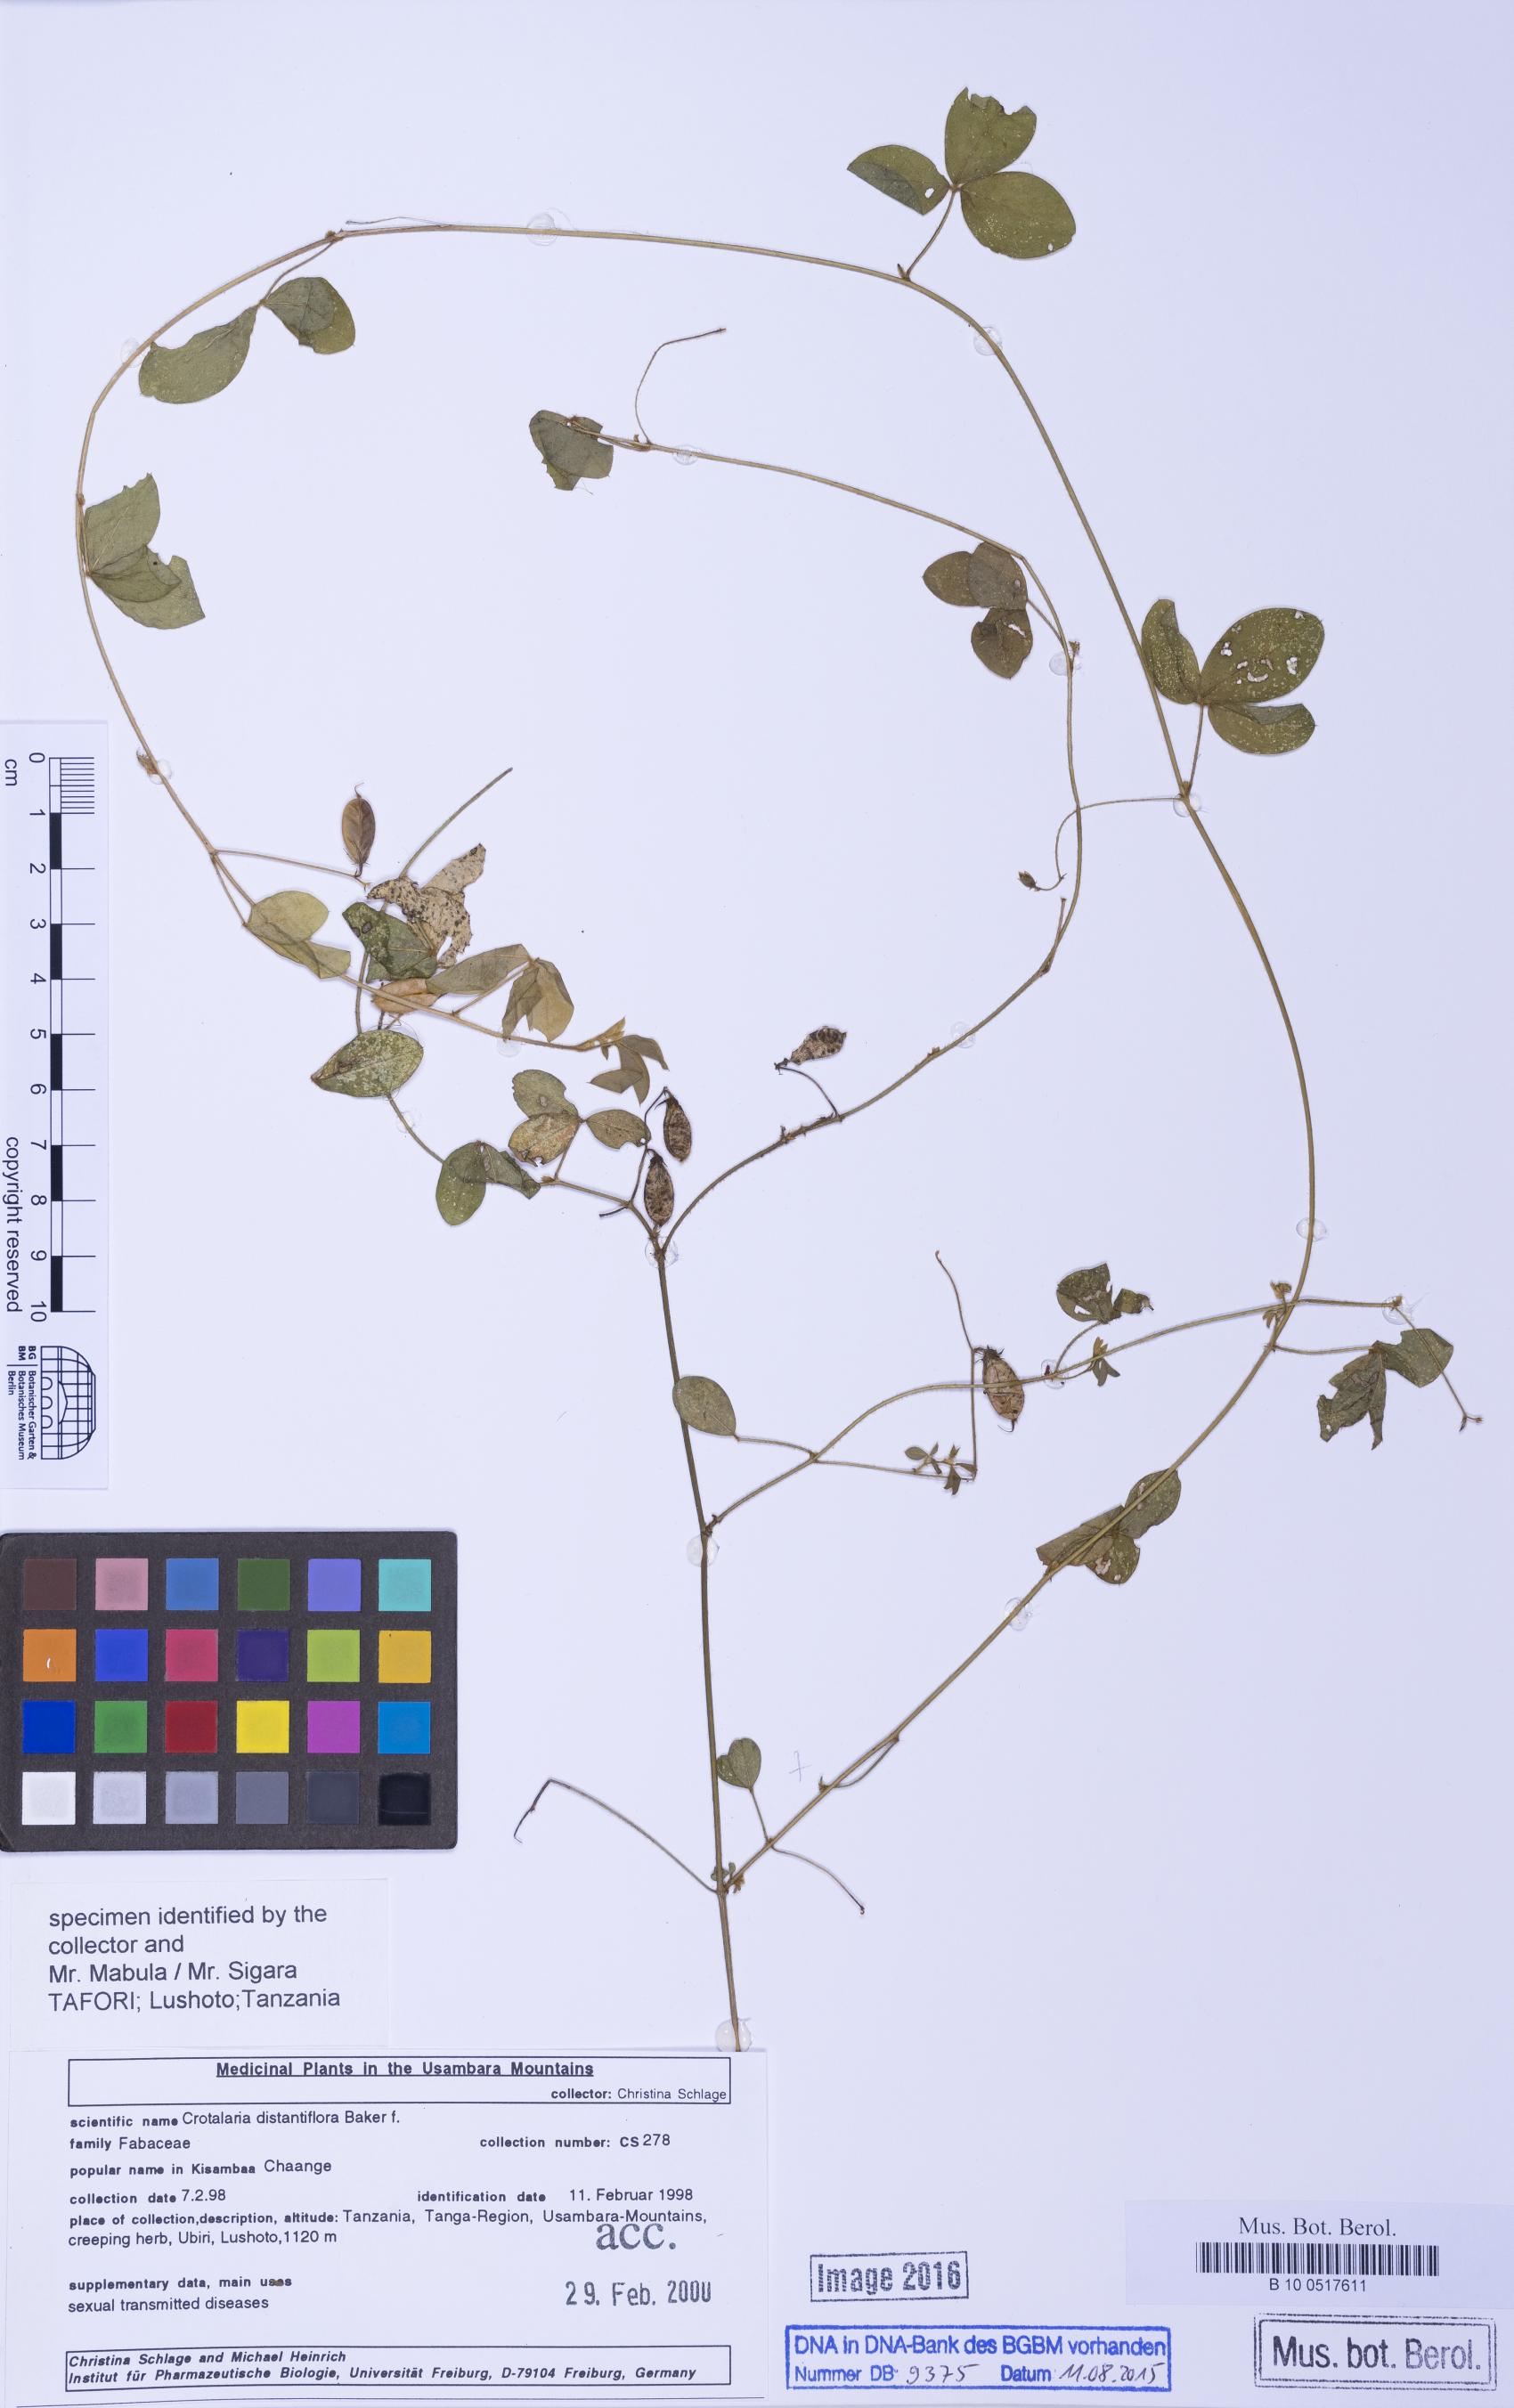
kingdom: Plantae
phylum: Tracheophyta
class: Magnoliopsida
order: Fabales
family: Fabaceae
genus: Crotalaria
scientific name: Crotalaria distantiflora
